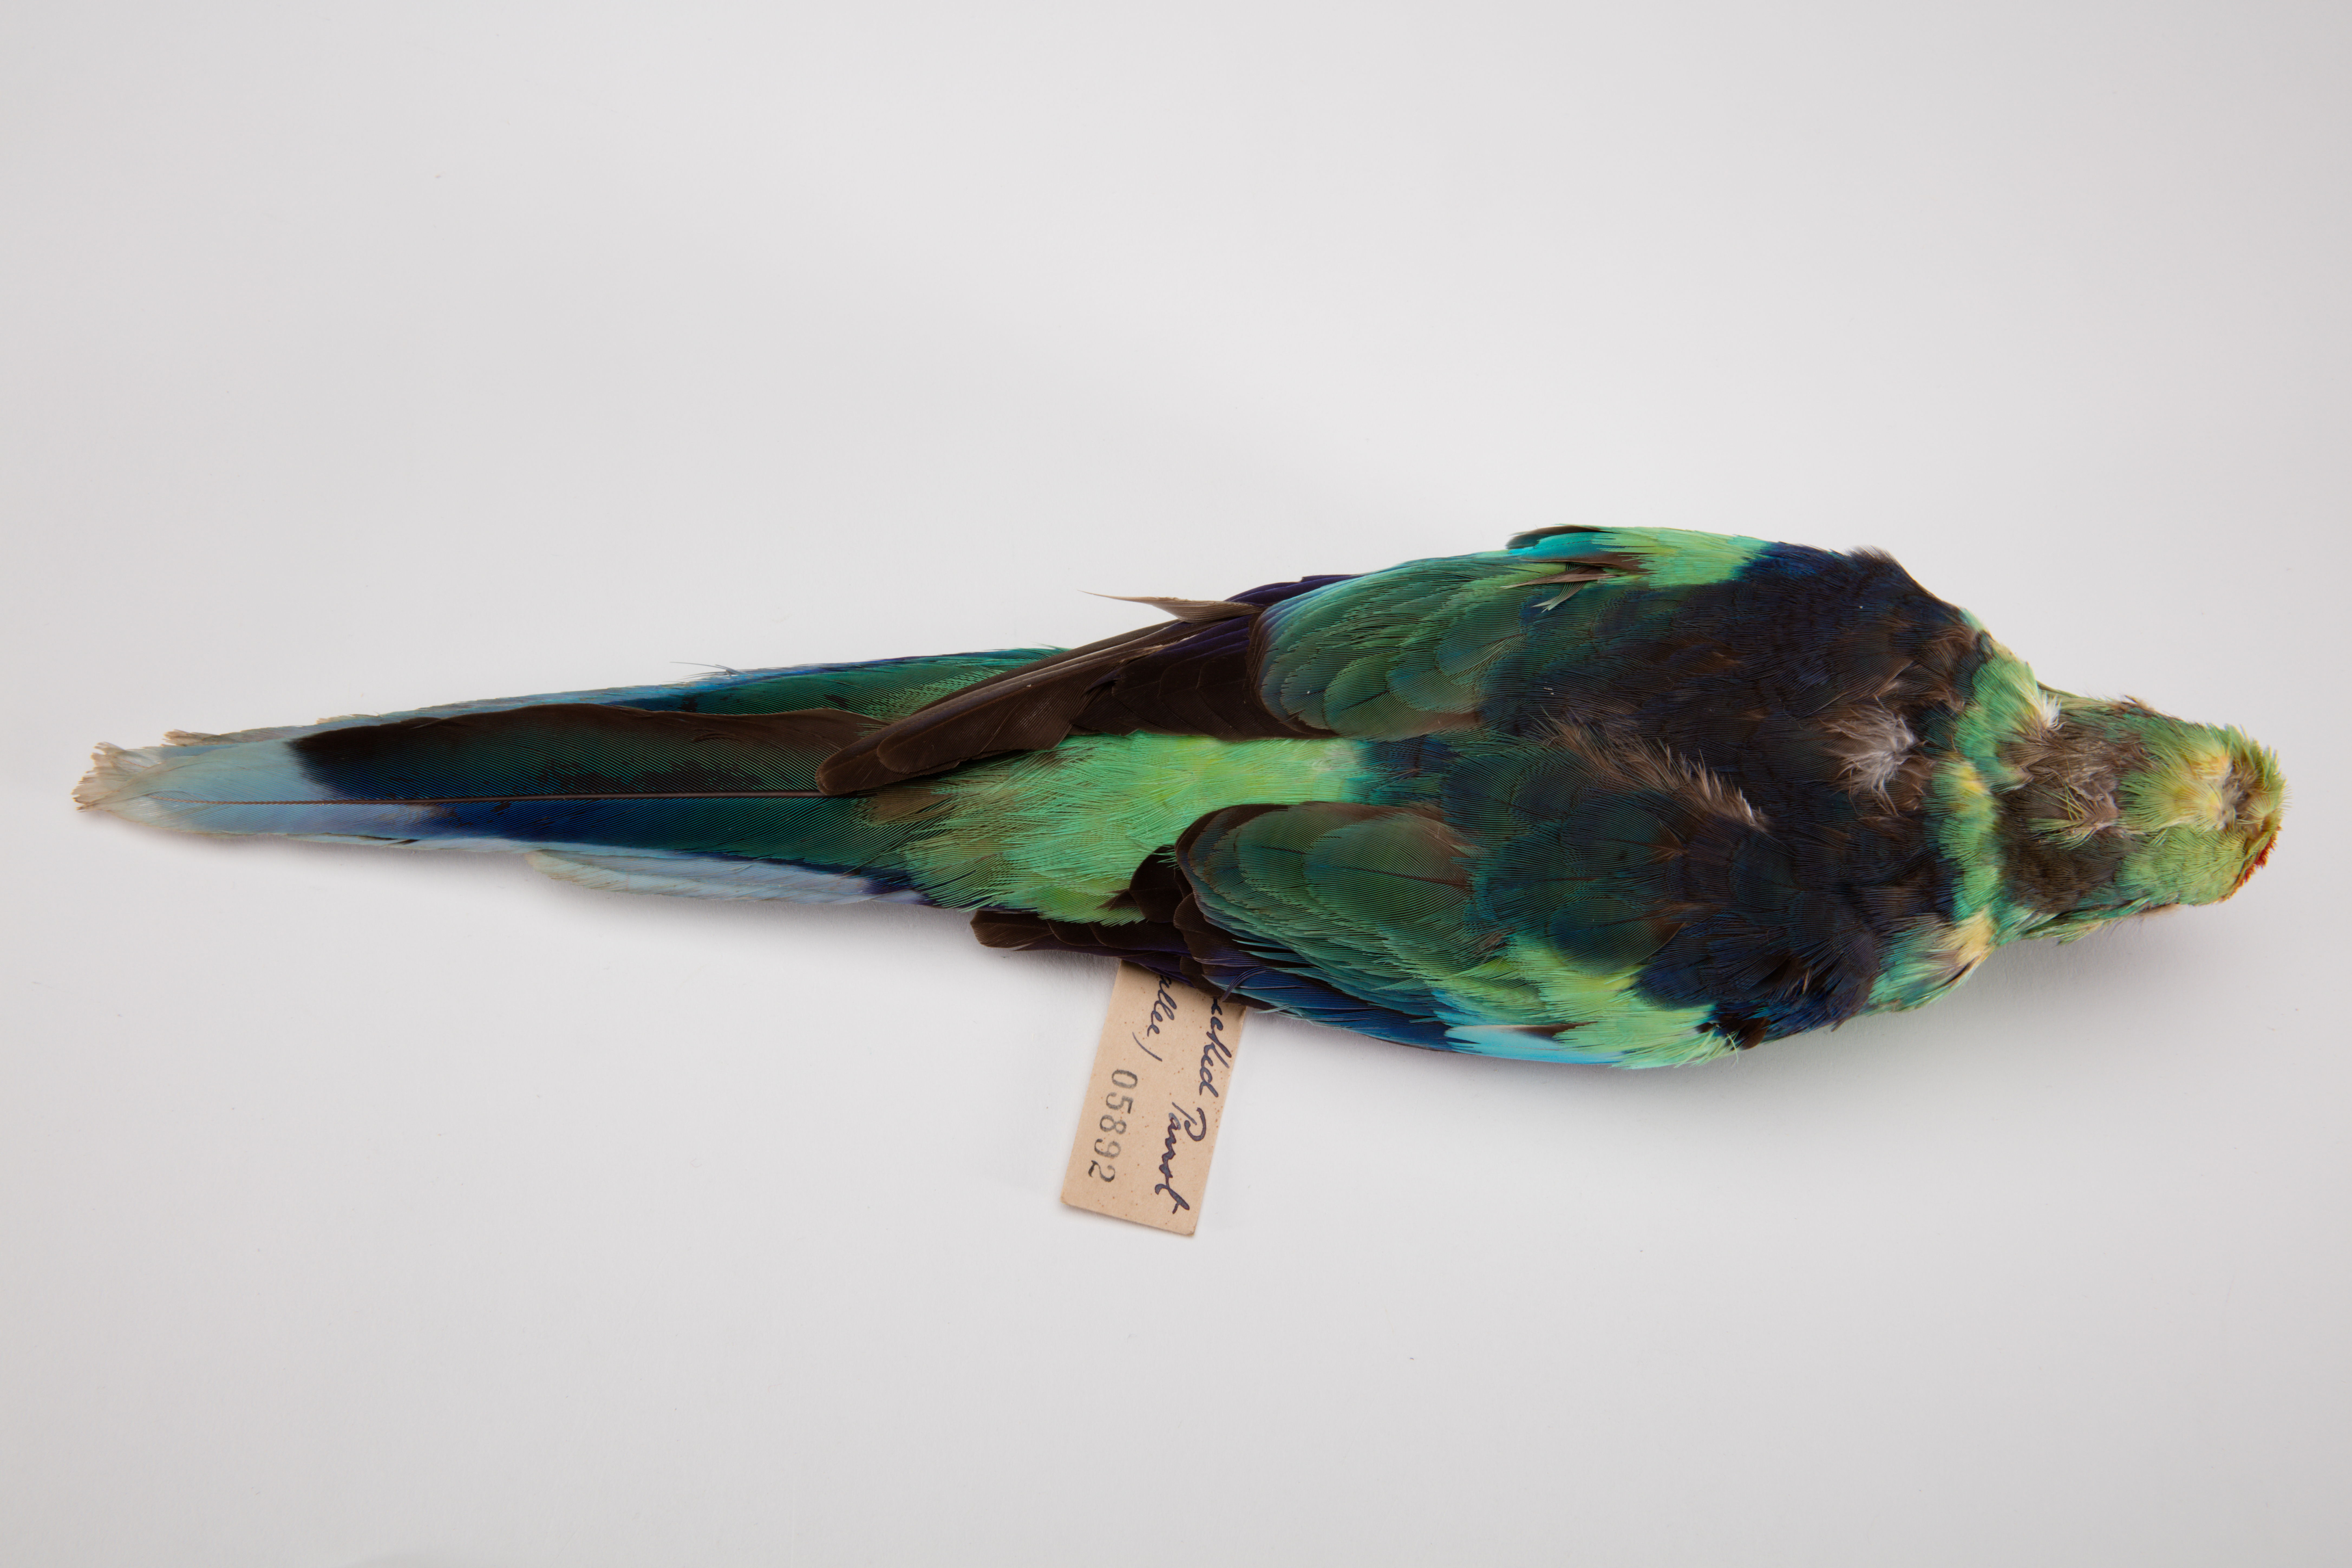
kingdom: Animalia
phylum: Chordata
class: Aves
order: Psittaciformes
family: Psittacidae
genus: Barnardius
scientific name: Barnardius zonarius
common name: Australian ringneck
